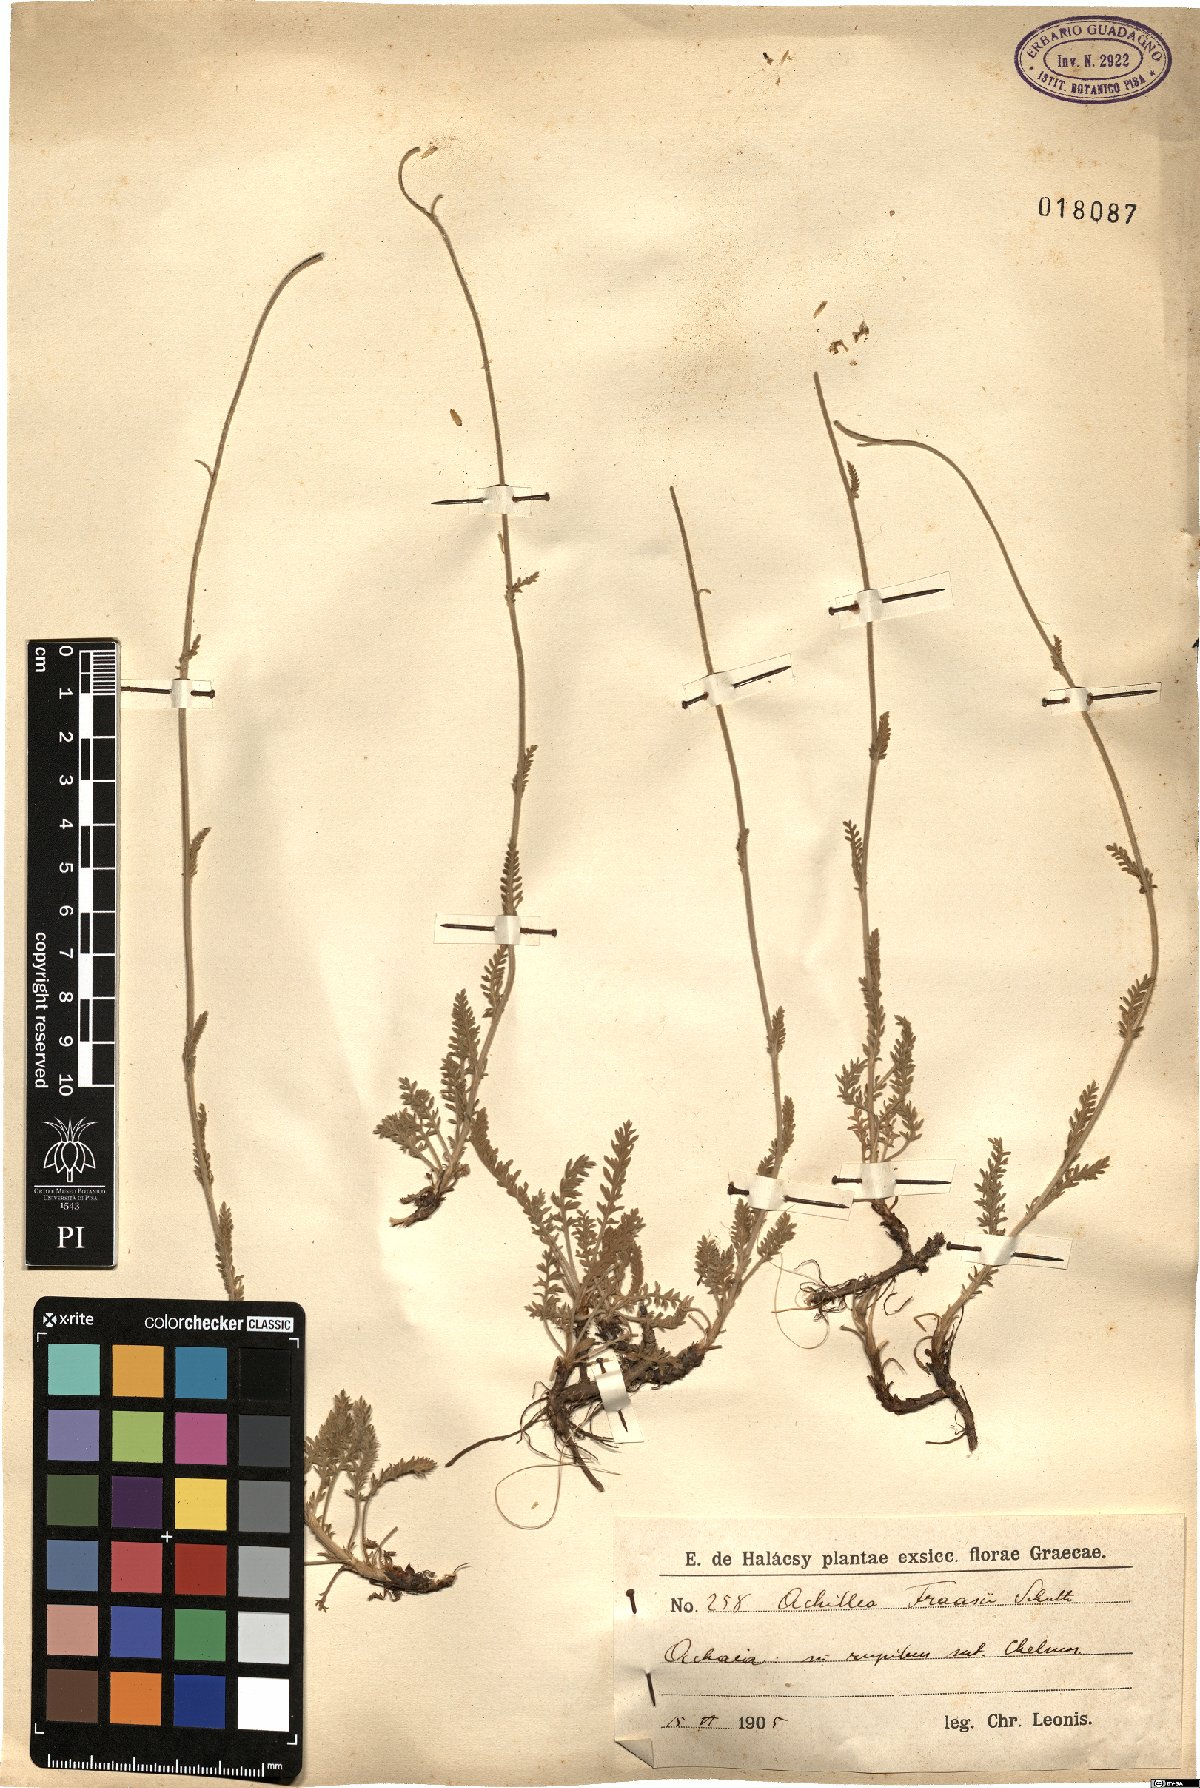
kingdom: Plantae
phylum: Tracheophyta
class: Magnoliopsida
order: Asterales
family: Asteraceae
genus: Achillea
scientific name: Achillea fraasii
